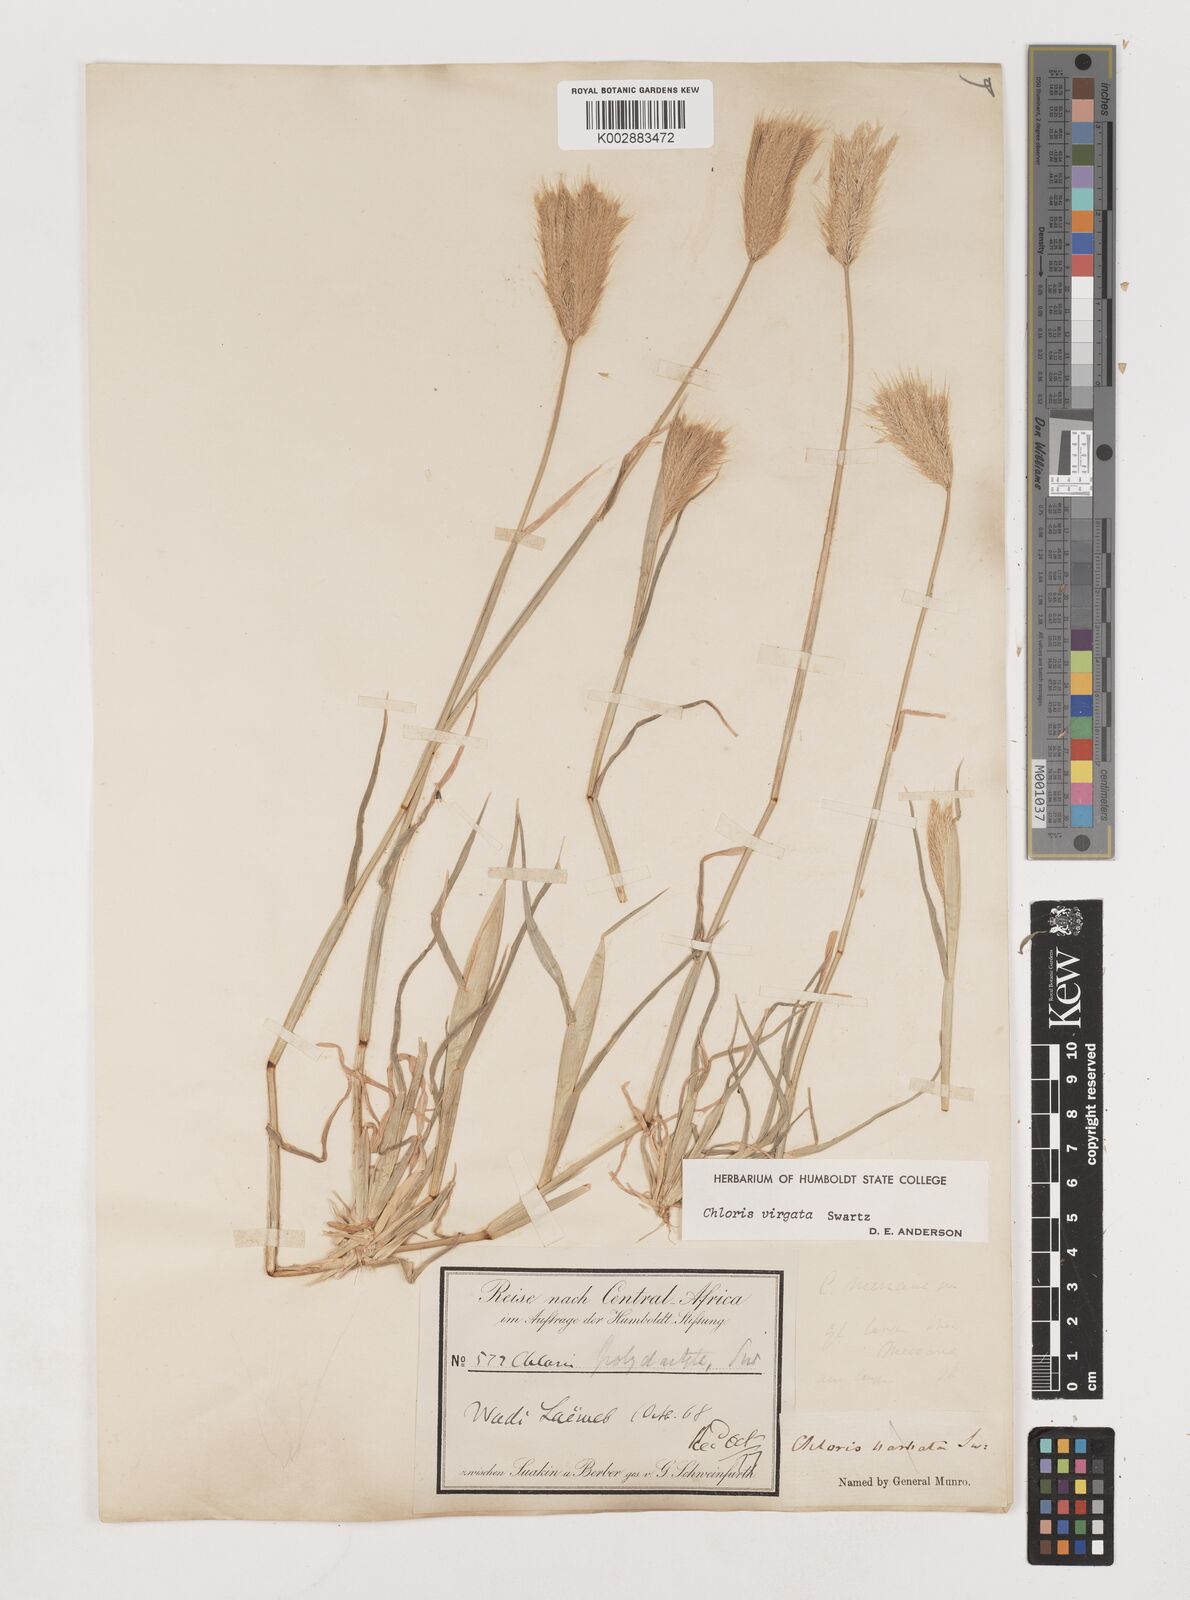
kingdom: Plantae
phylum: Tracheophyta
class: Liliopsida
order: Poales
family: Poaceae
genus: Chloris
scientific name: Chloris virgata
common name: Feathery rhodes-grass
